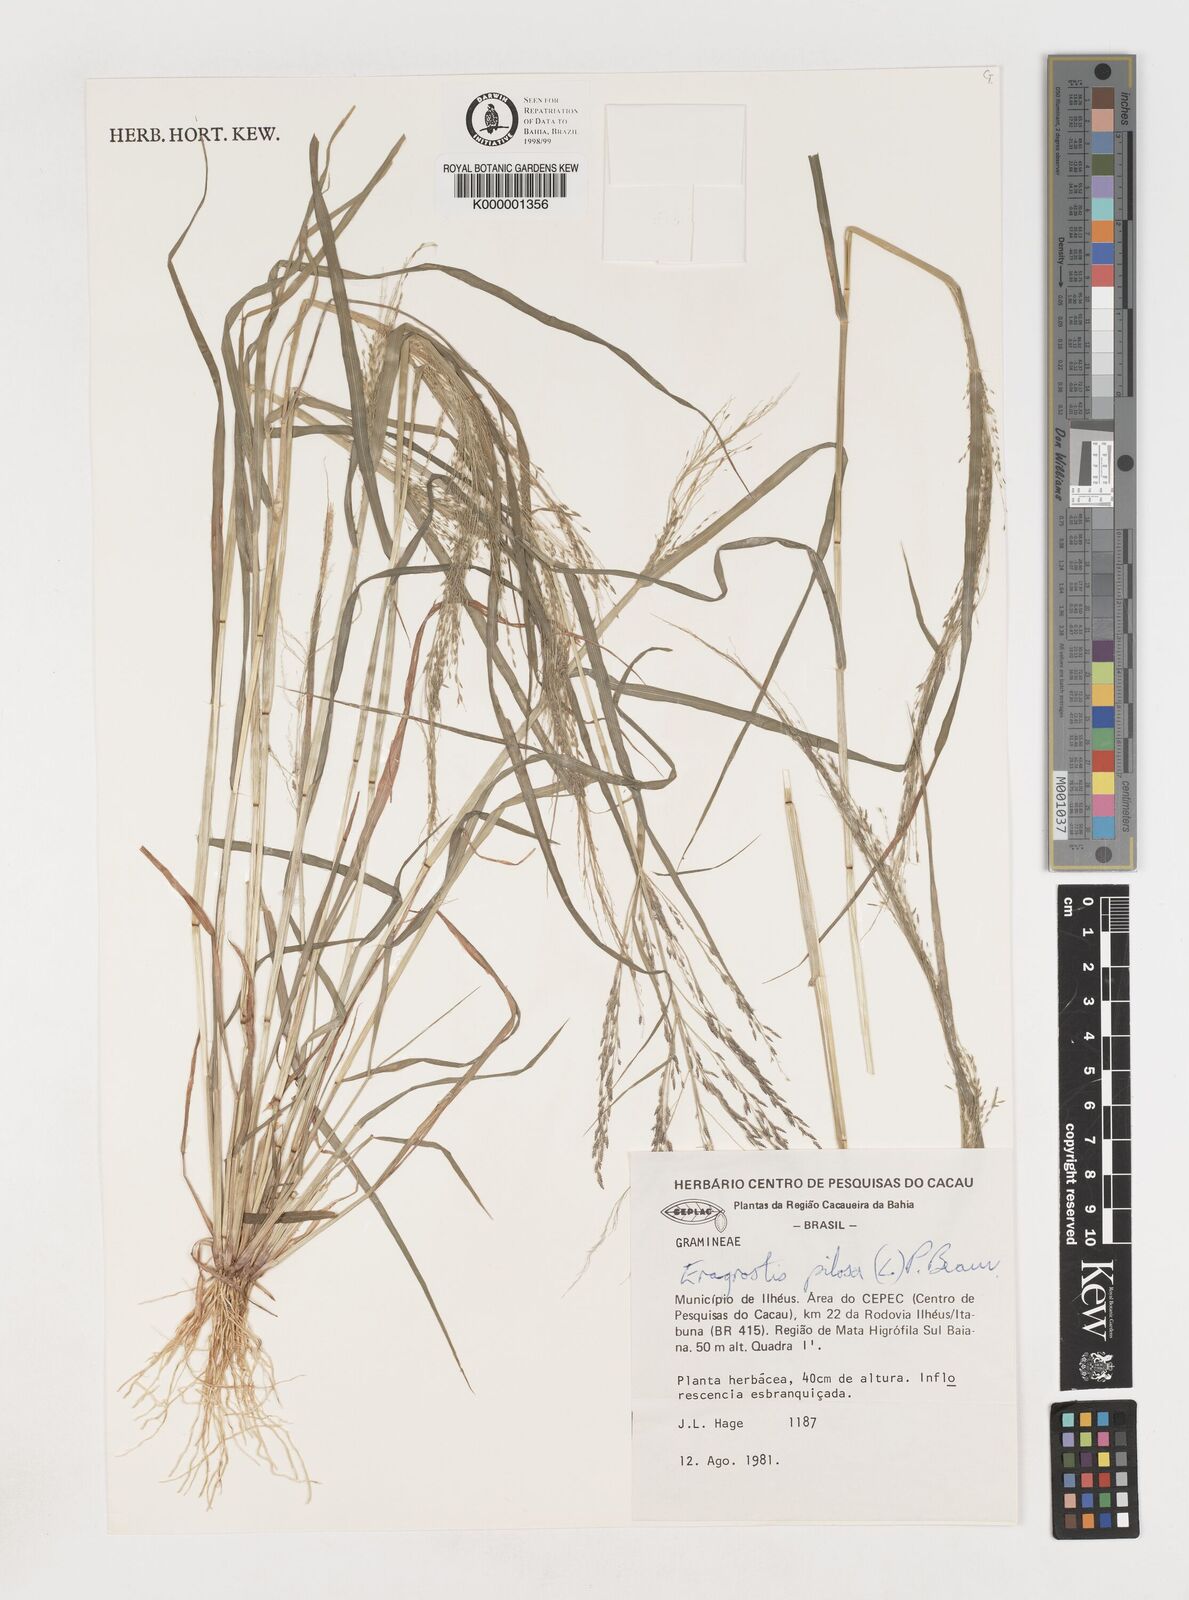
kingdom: Plantae
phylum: Tracheophyta
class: Liliopsida
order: Poales
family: Poaceae
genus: Eragrostis
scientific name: Eragrostis pilosa
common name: Indian lovegrass
